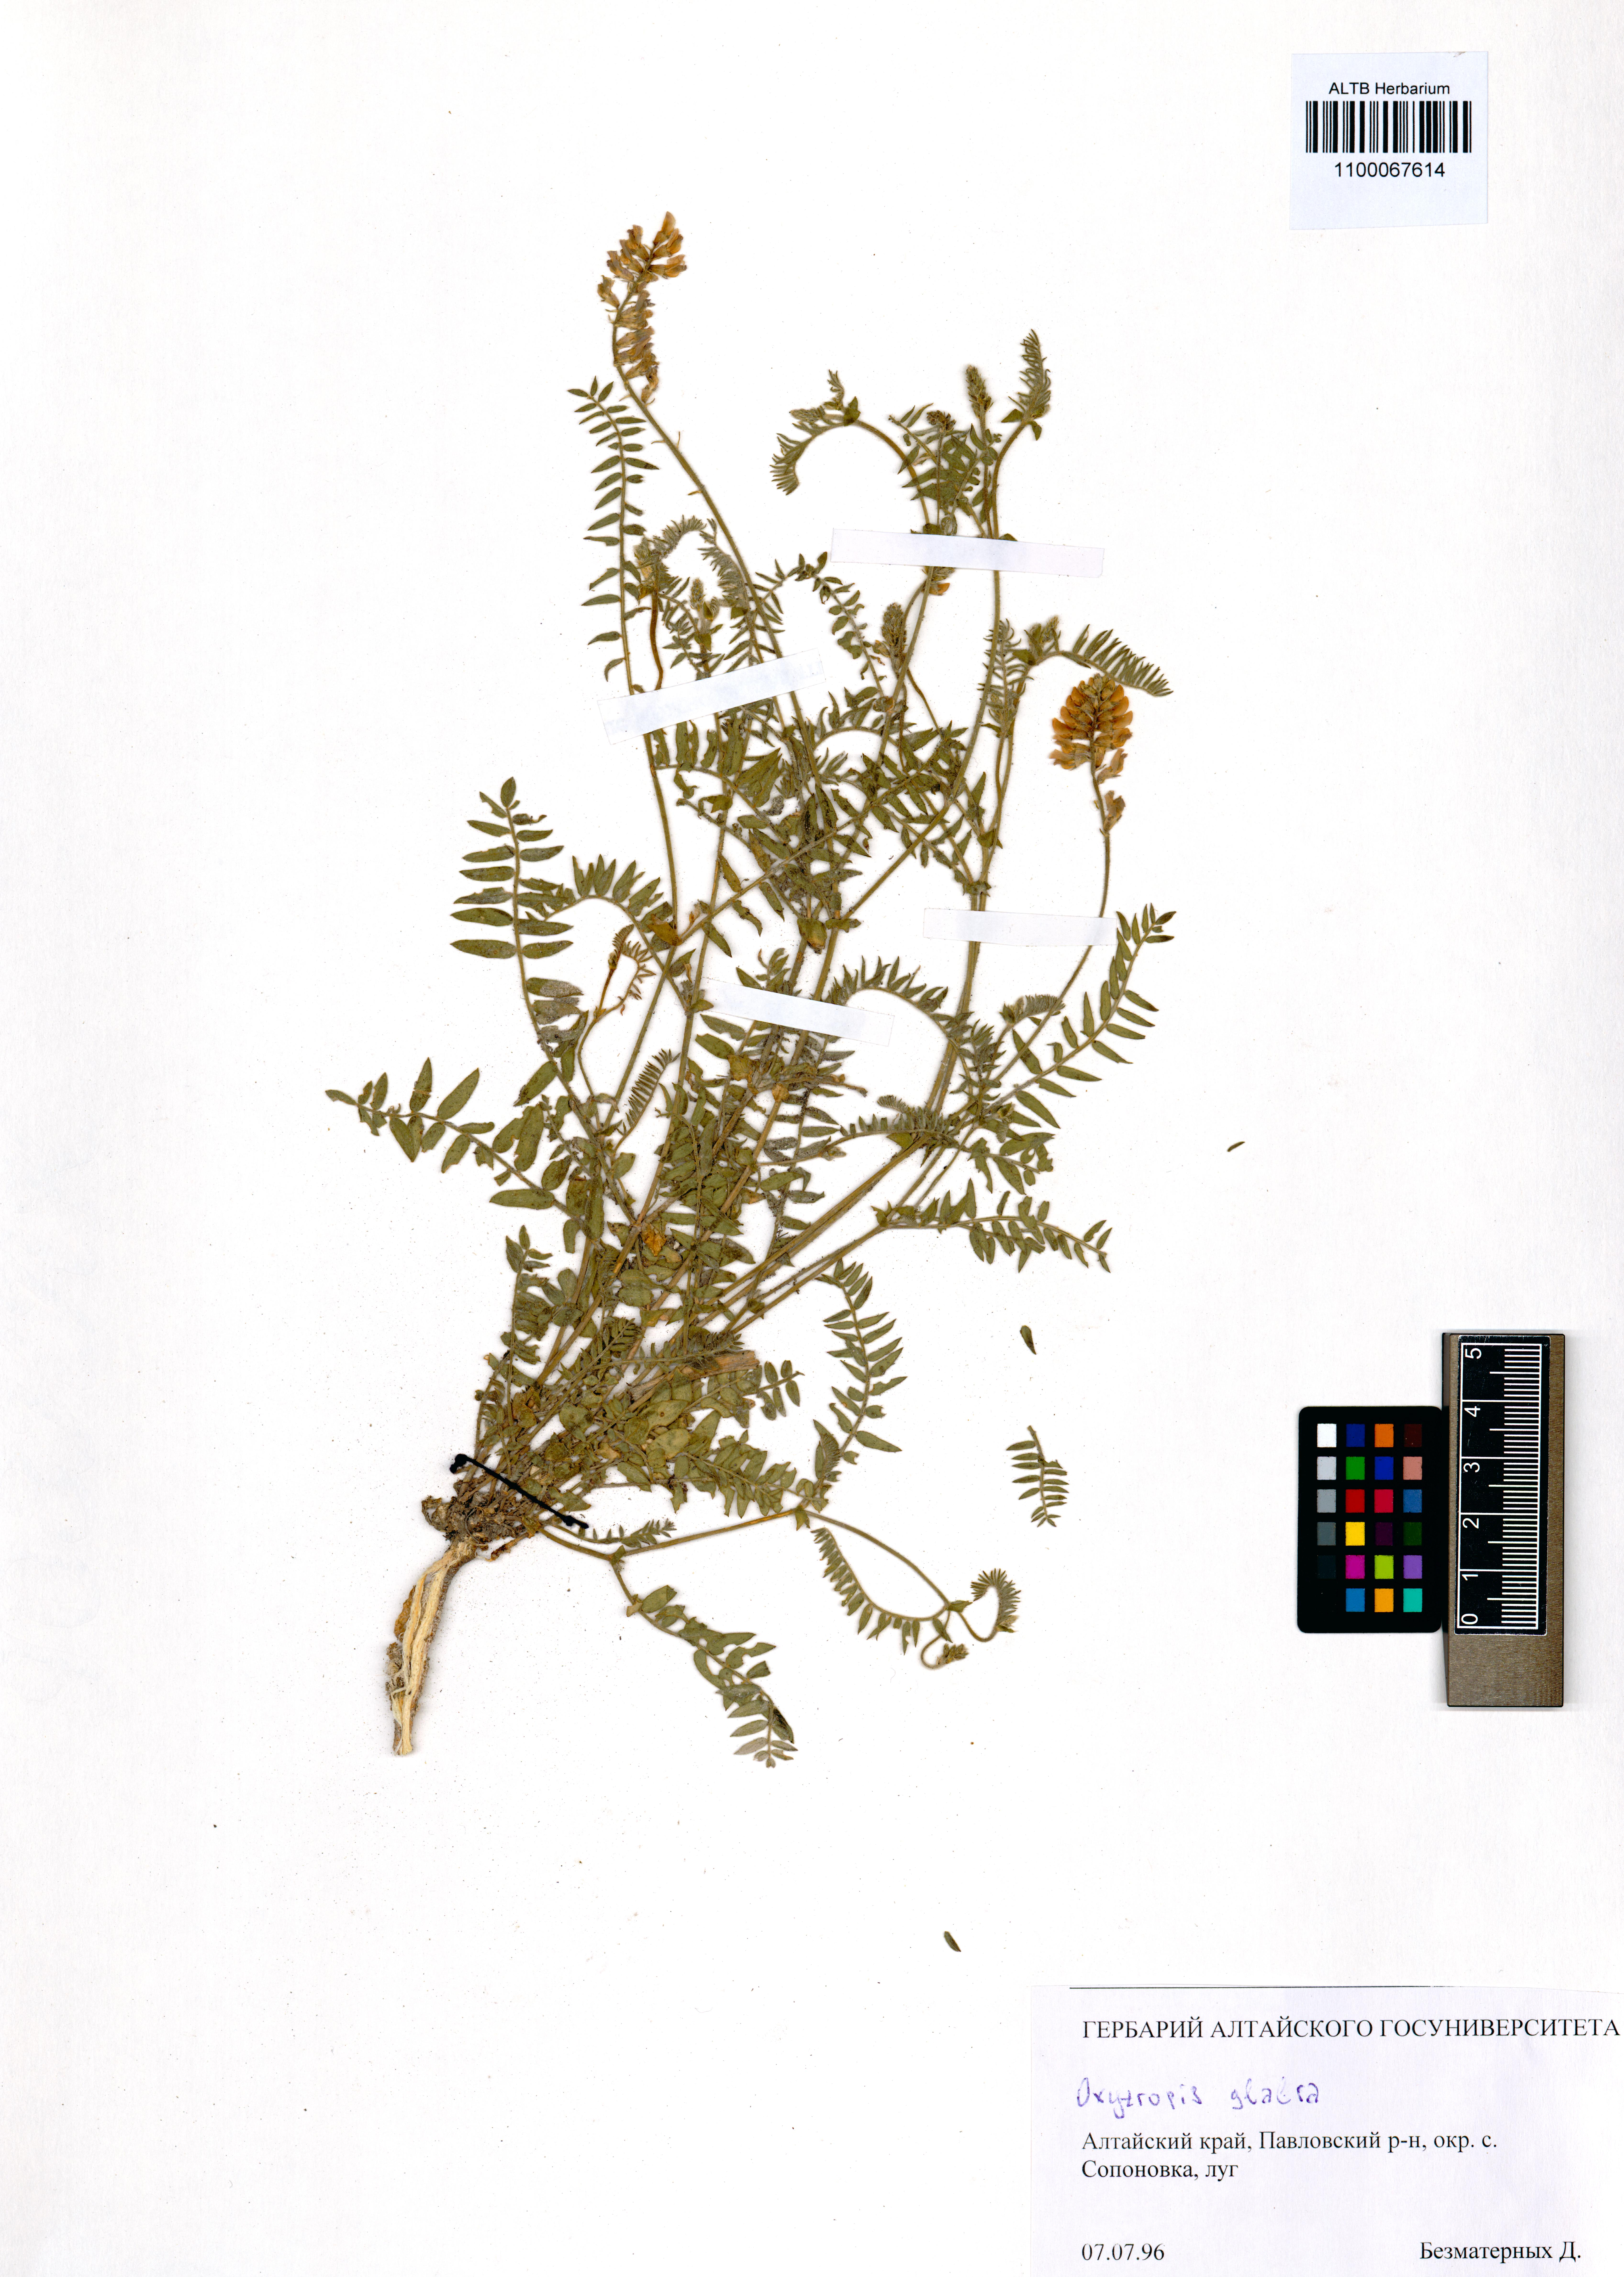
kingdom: Plantae
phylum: Tracheophyta
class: Magnoliopsida
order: Fabales
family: Fabaceae
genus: Oxytropis
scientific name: Oxytropis glabra
